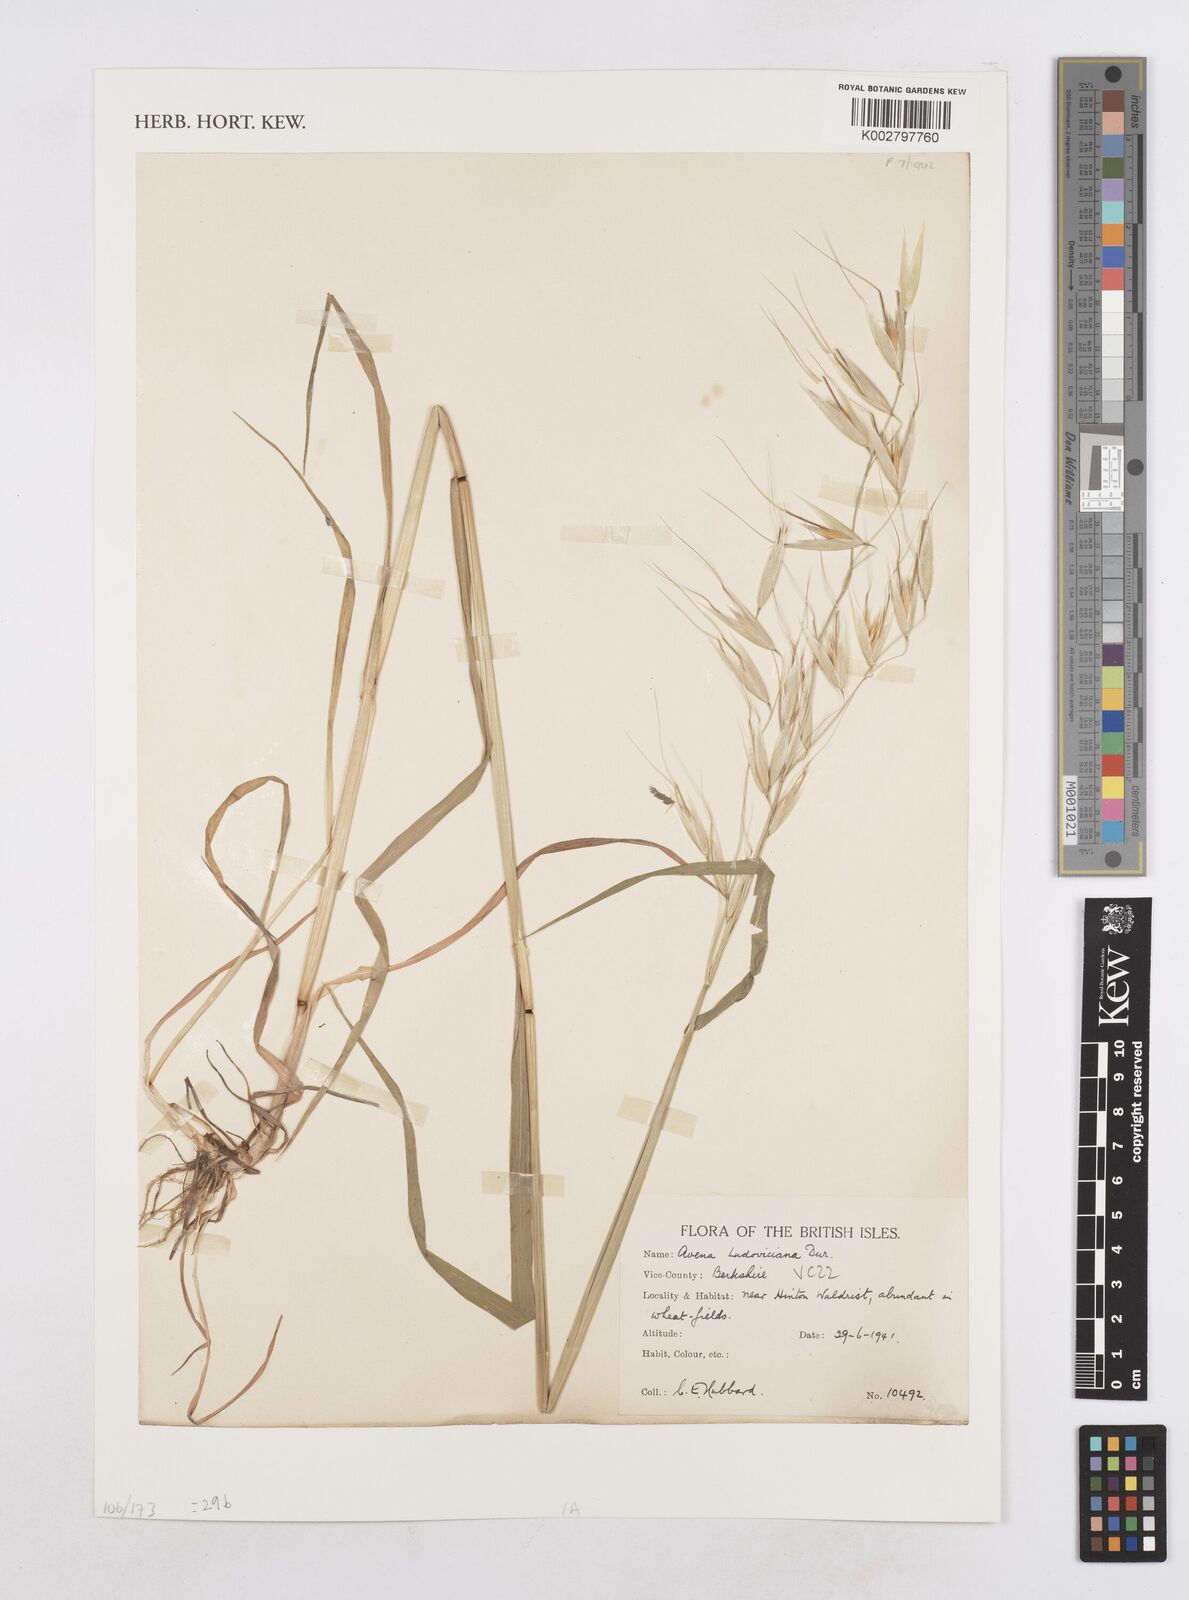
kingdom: Plantae
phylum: Tracheophyta
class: Liliopsida
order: Poales
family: Poaceae
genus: Avena
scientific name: Avena sterilis
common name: Animated oat
